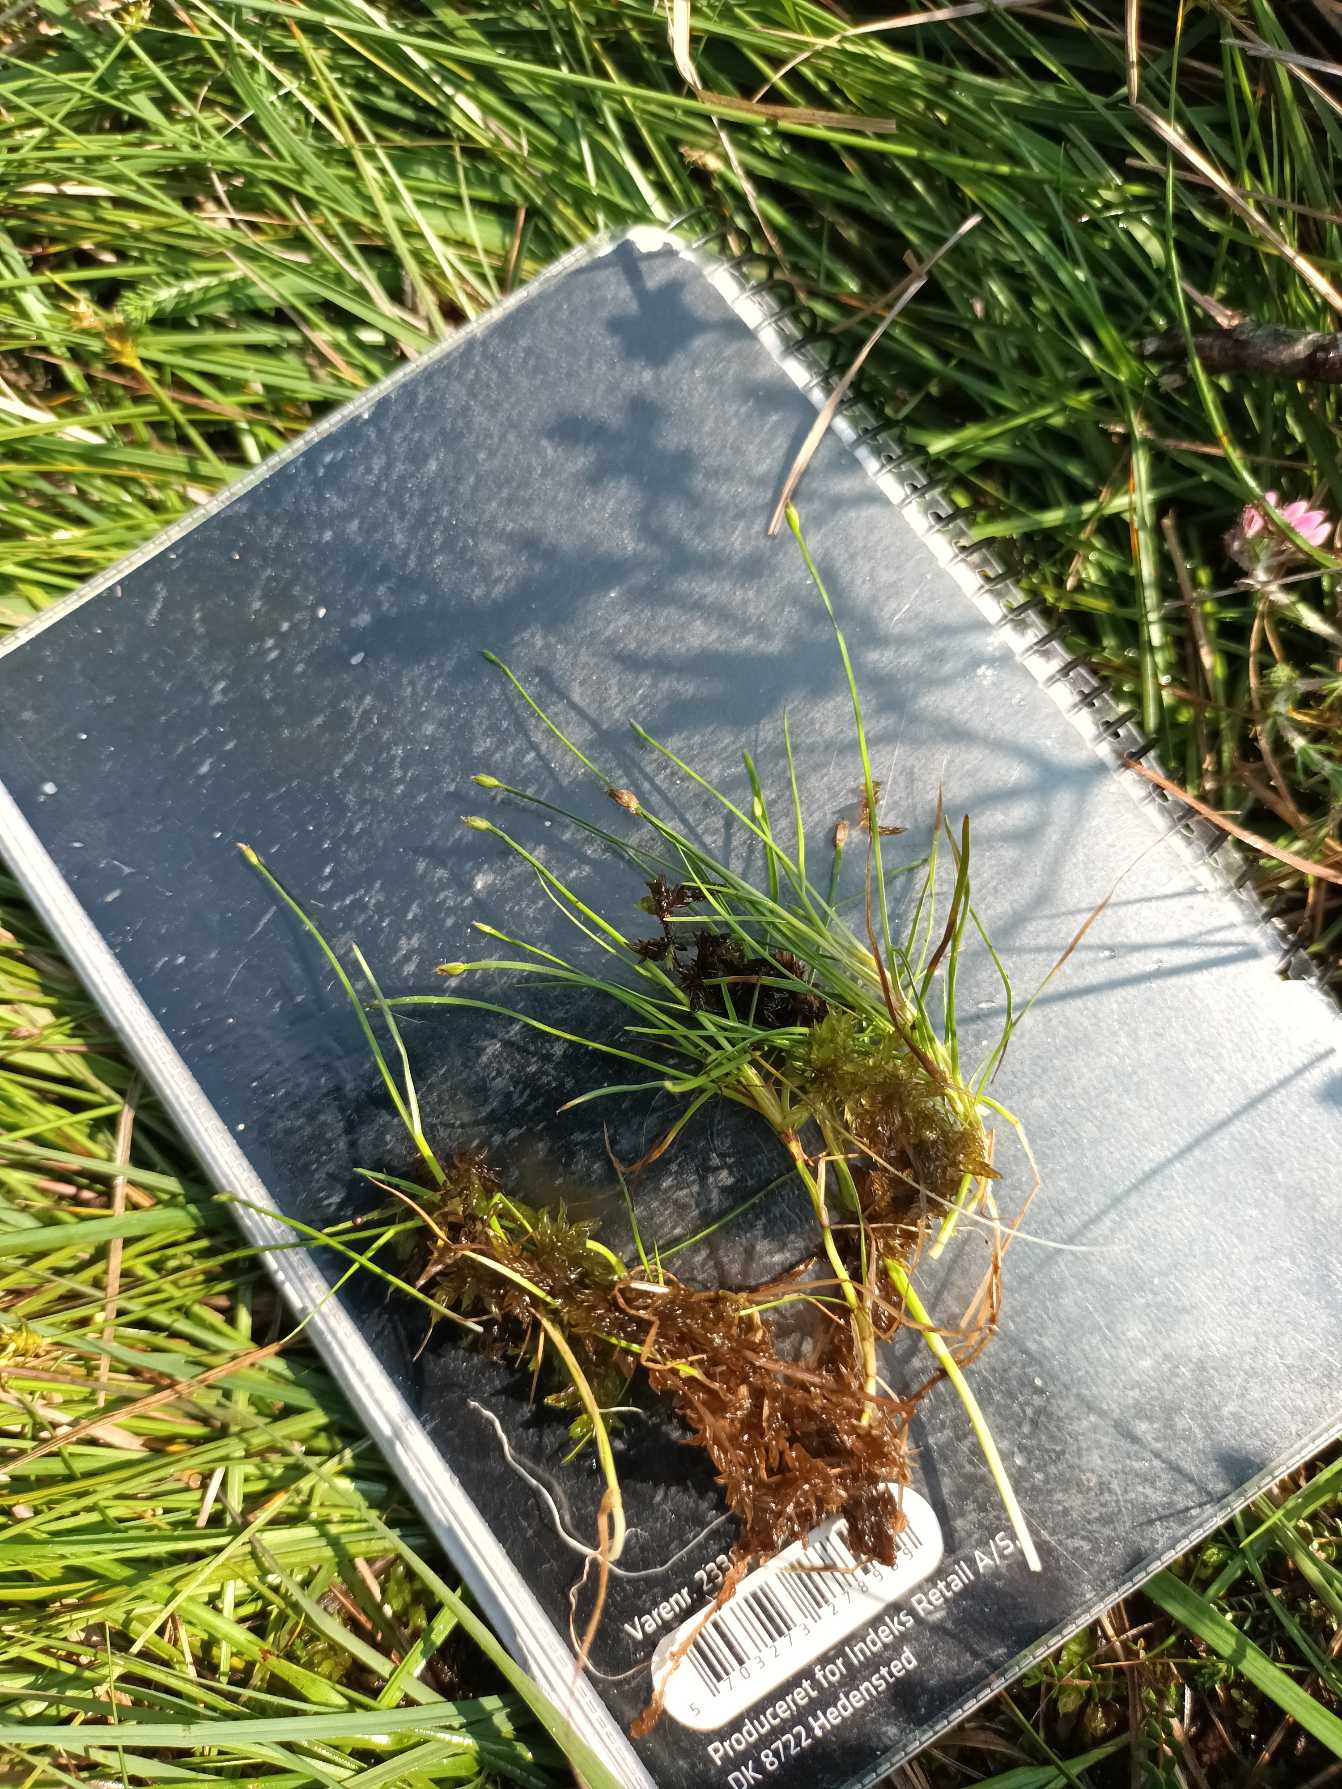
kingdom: Plantae
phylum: Tracheophyta
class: Liliopsida
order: Poales
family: Cyperaceae
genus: Isolepis
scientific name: Isolepis fluitans
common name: Flydende kogleaks
